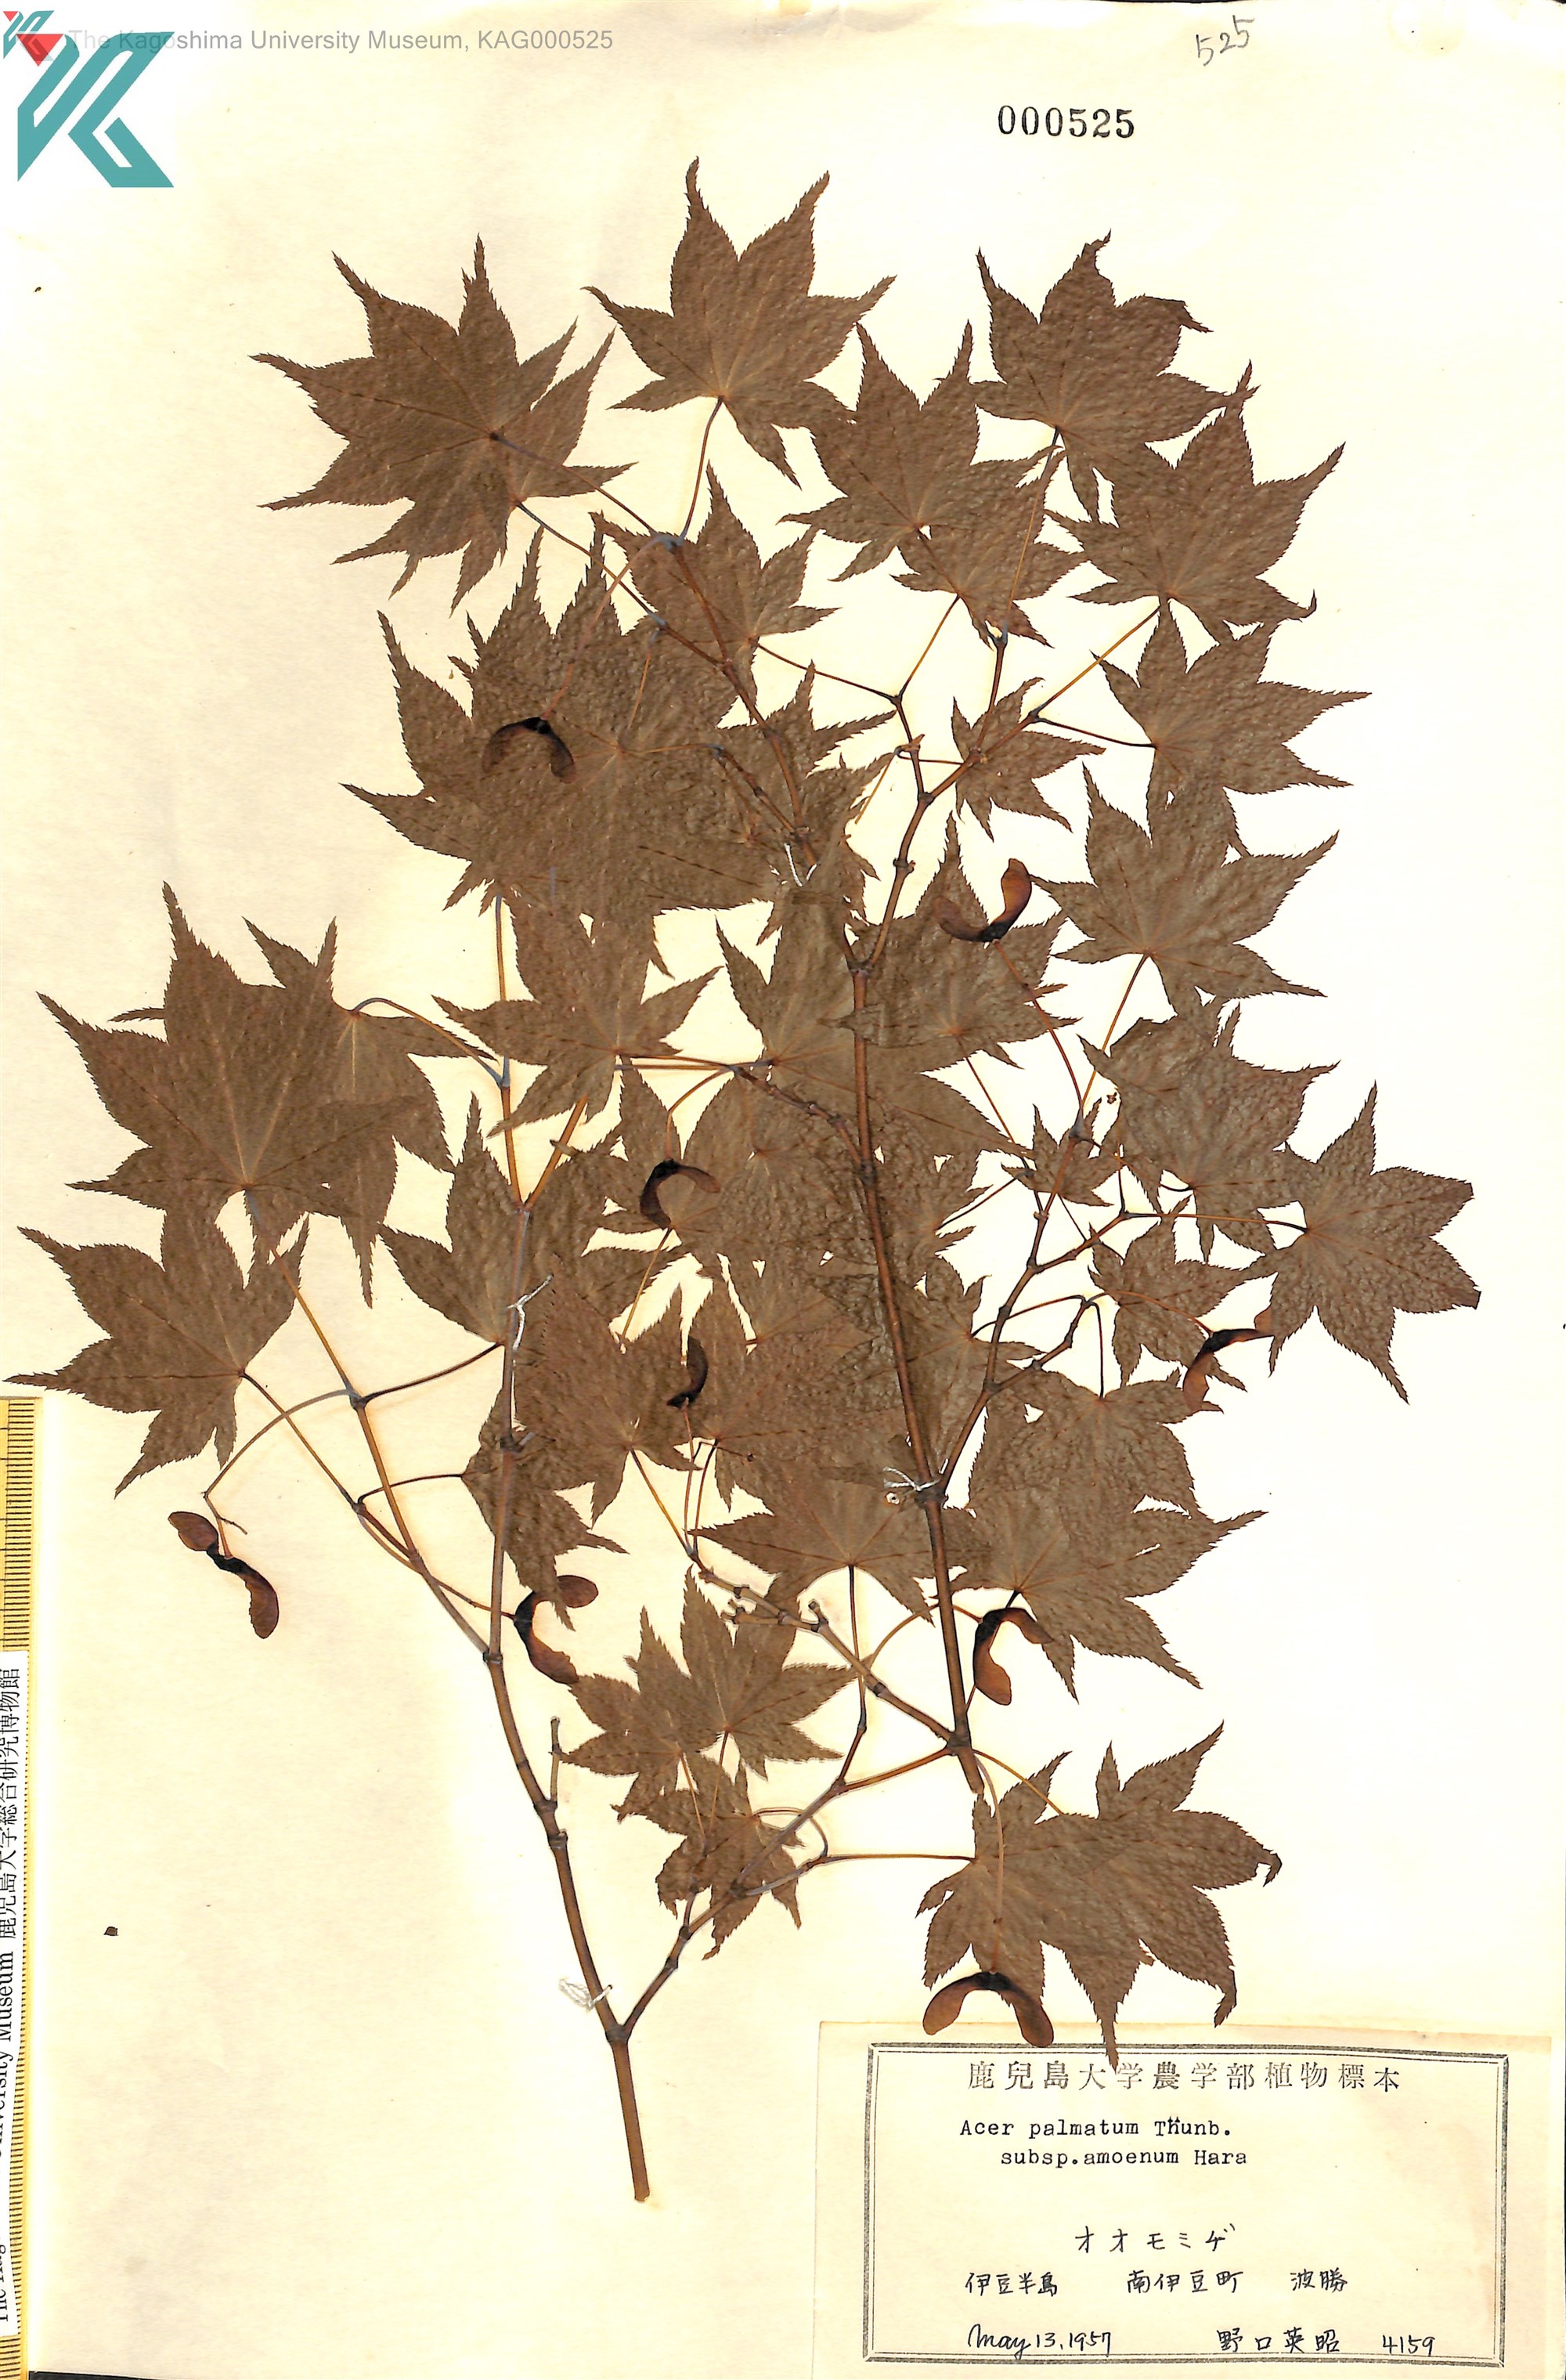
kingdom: Plantae
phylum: Tracheophyta
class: Magnoliopsida
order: Sapindales
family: Sapindaceae
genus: Acer
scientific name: Acer palmatum
